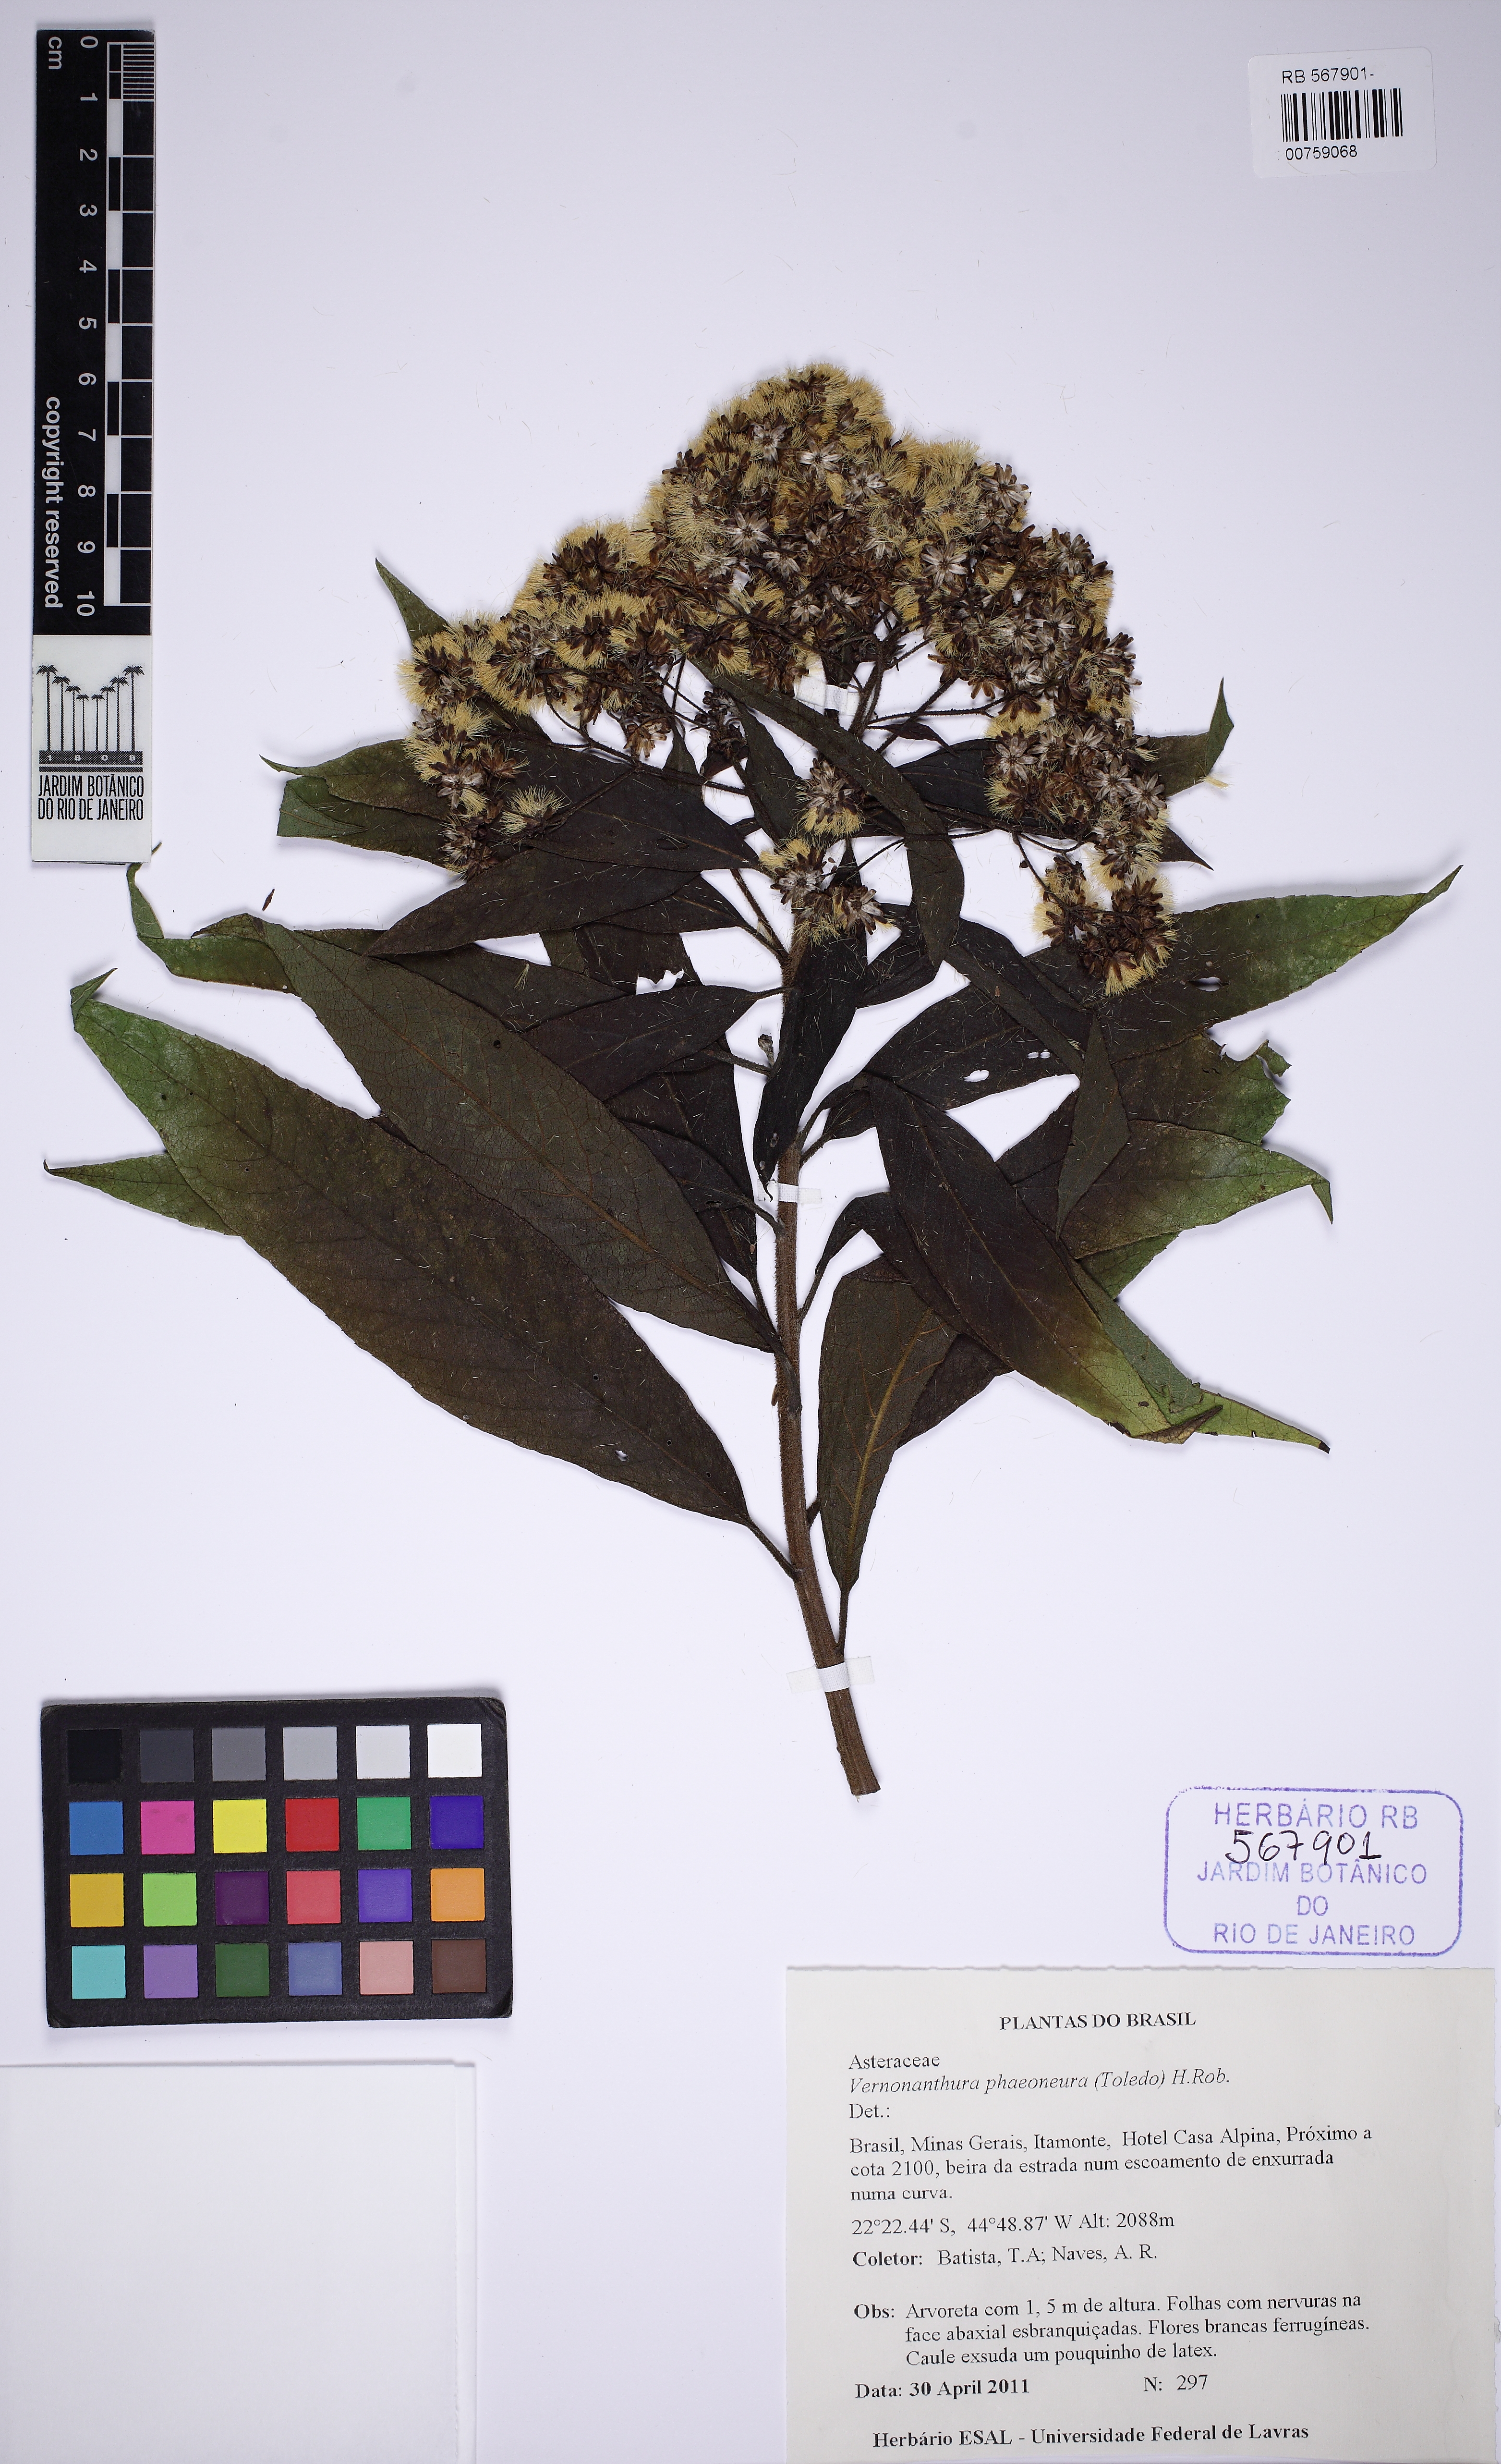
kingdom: Plantae
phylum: Tracheophyta
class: Magnoliopsida
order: Asterales
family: Asteraceae
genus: Vernonanthura
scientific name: Vernonanthura phaeoneura
